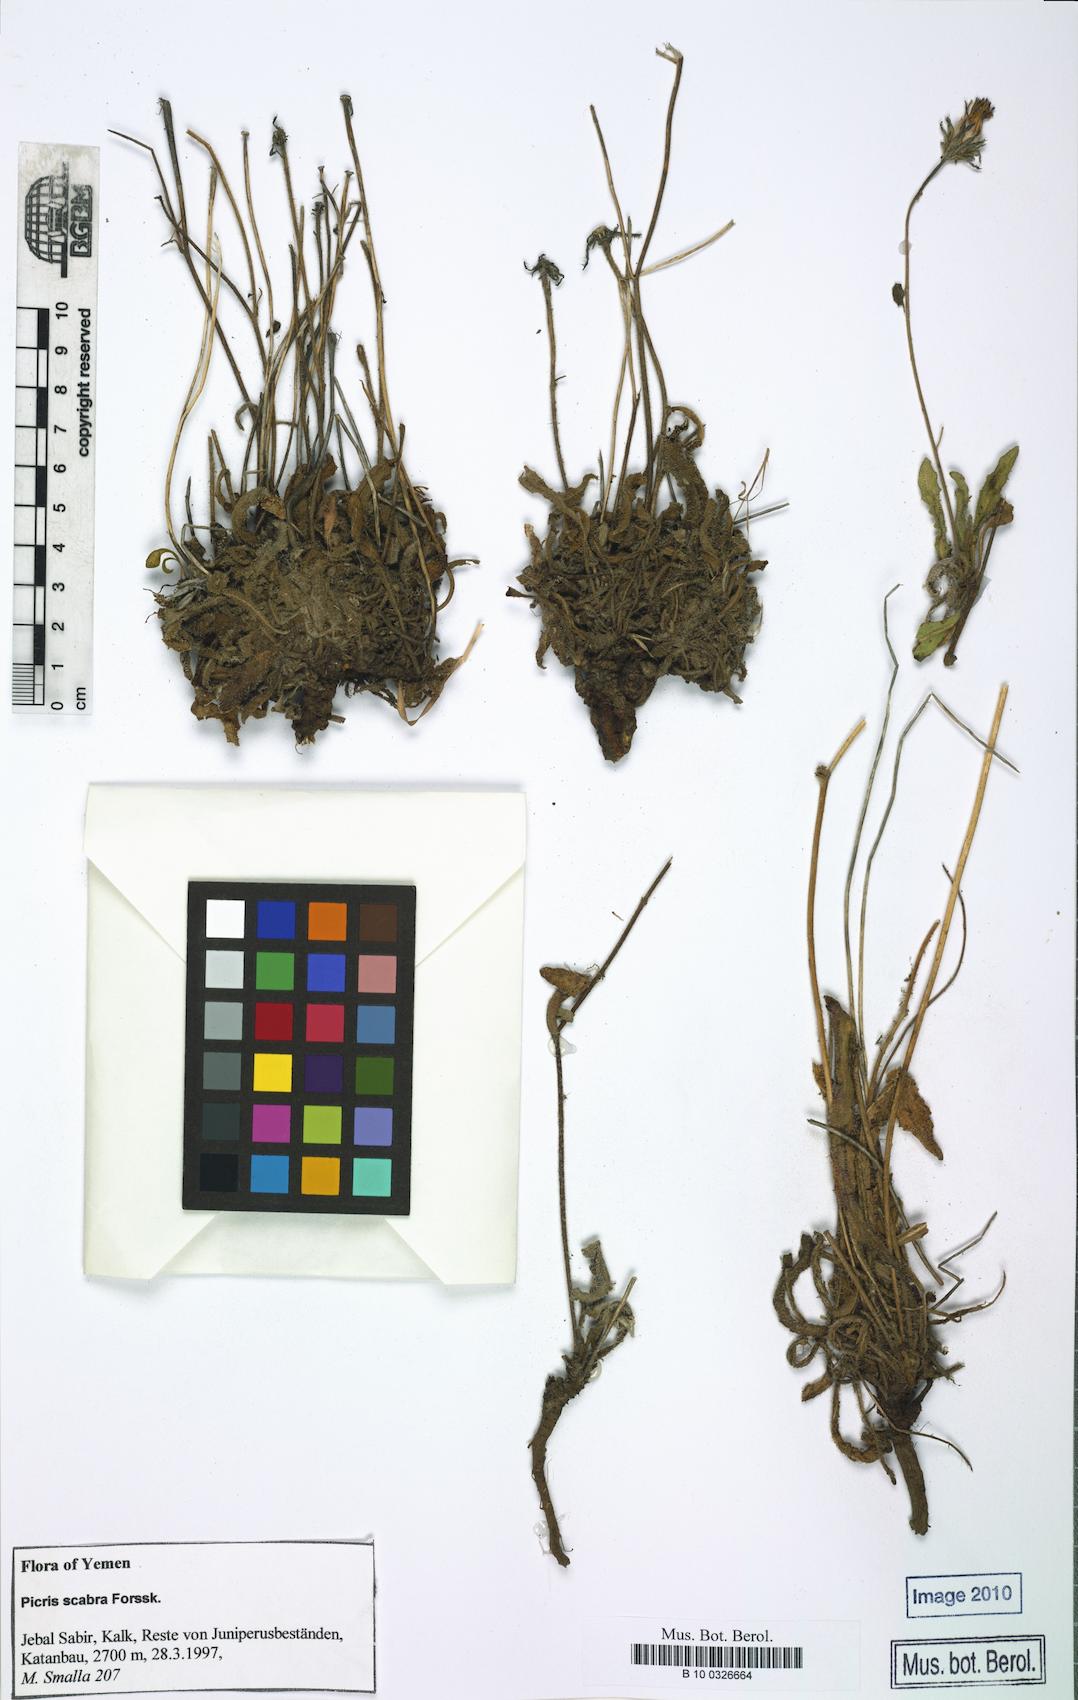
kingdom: Plantae
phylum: Tracheophyta
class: Magnoliopsida
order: Asterales
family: Asteraceae
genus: Picris
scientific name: Picris scabra
